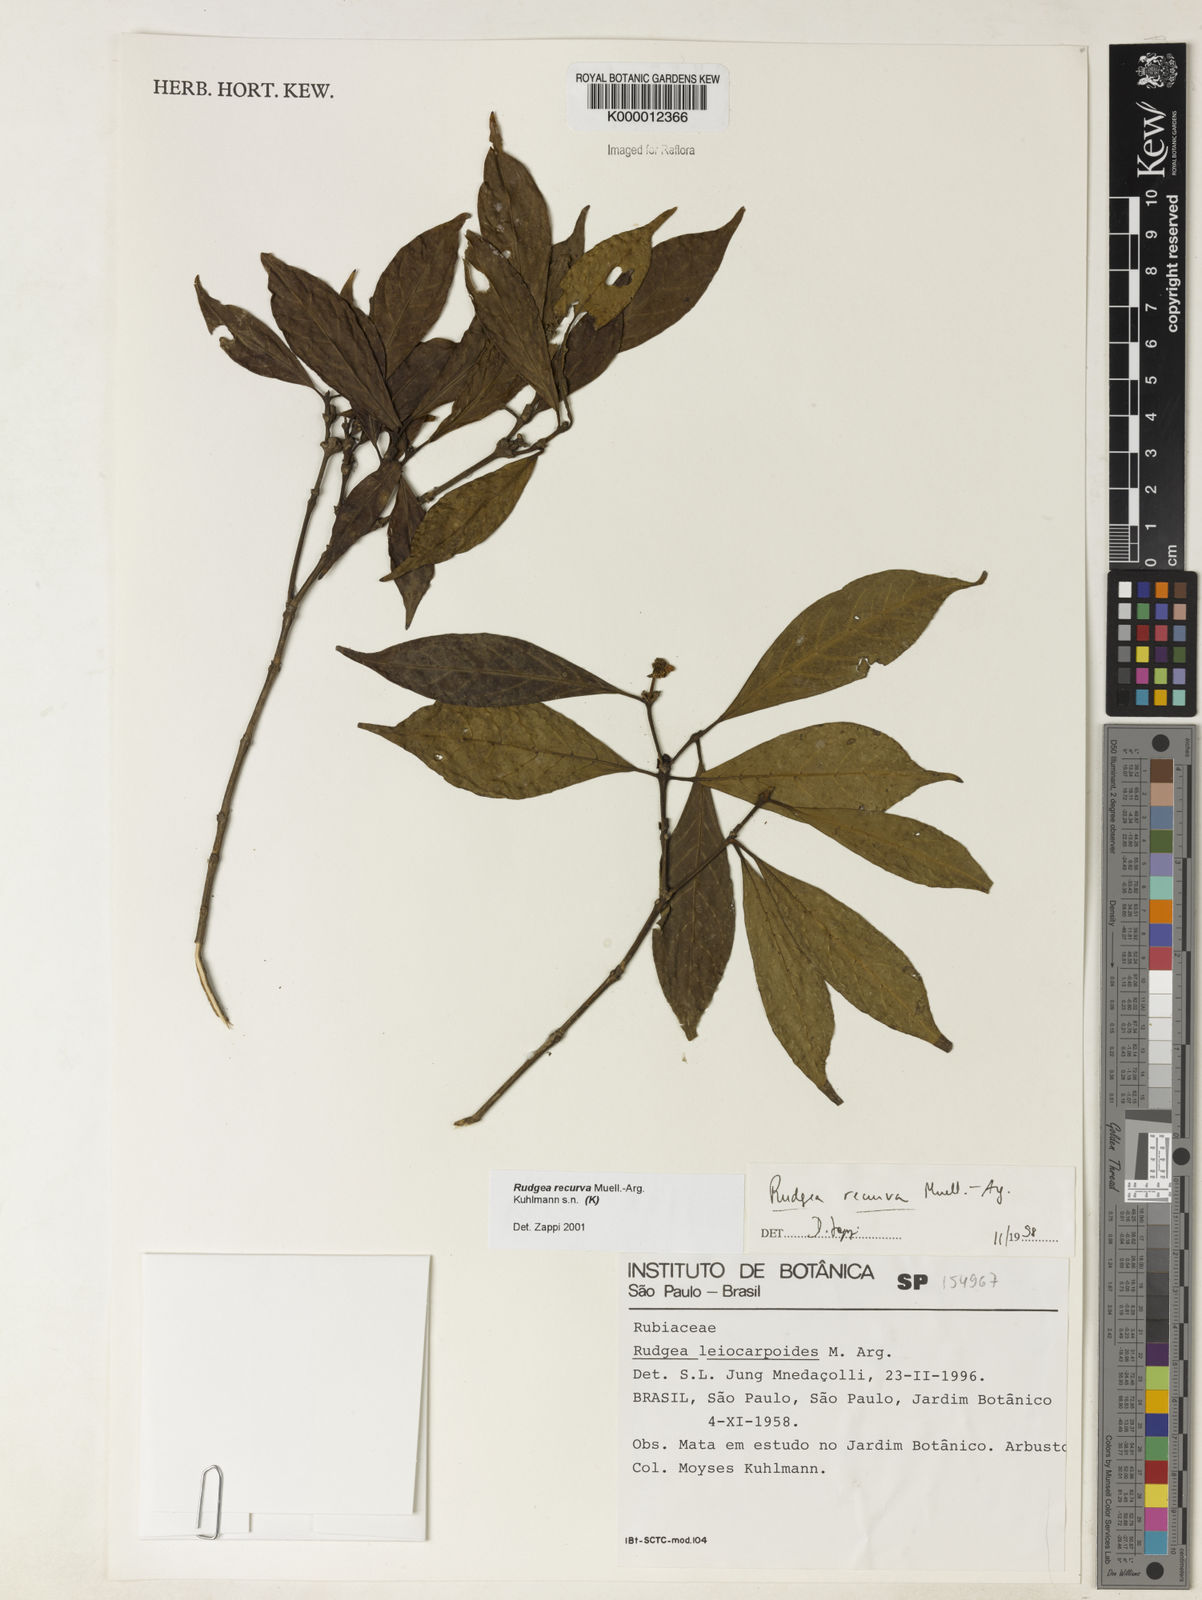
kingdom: Plantae
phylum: Tracheophyta
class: Magnoliopsida
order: Gentianales
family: Rubiaceae
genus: Rudgea
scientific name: Rudgea recurva
